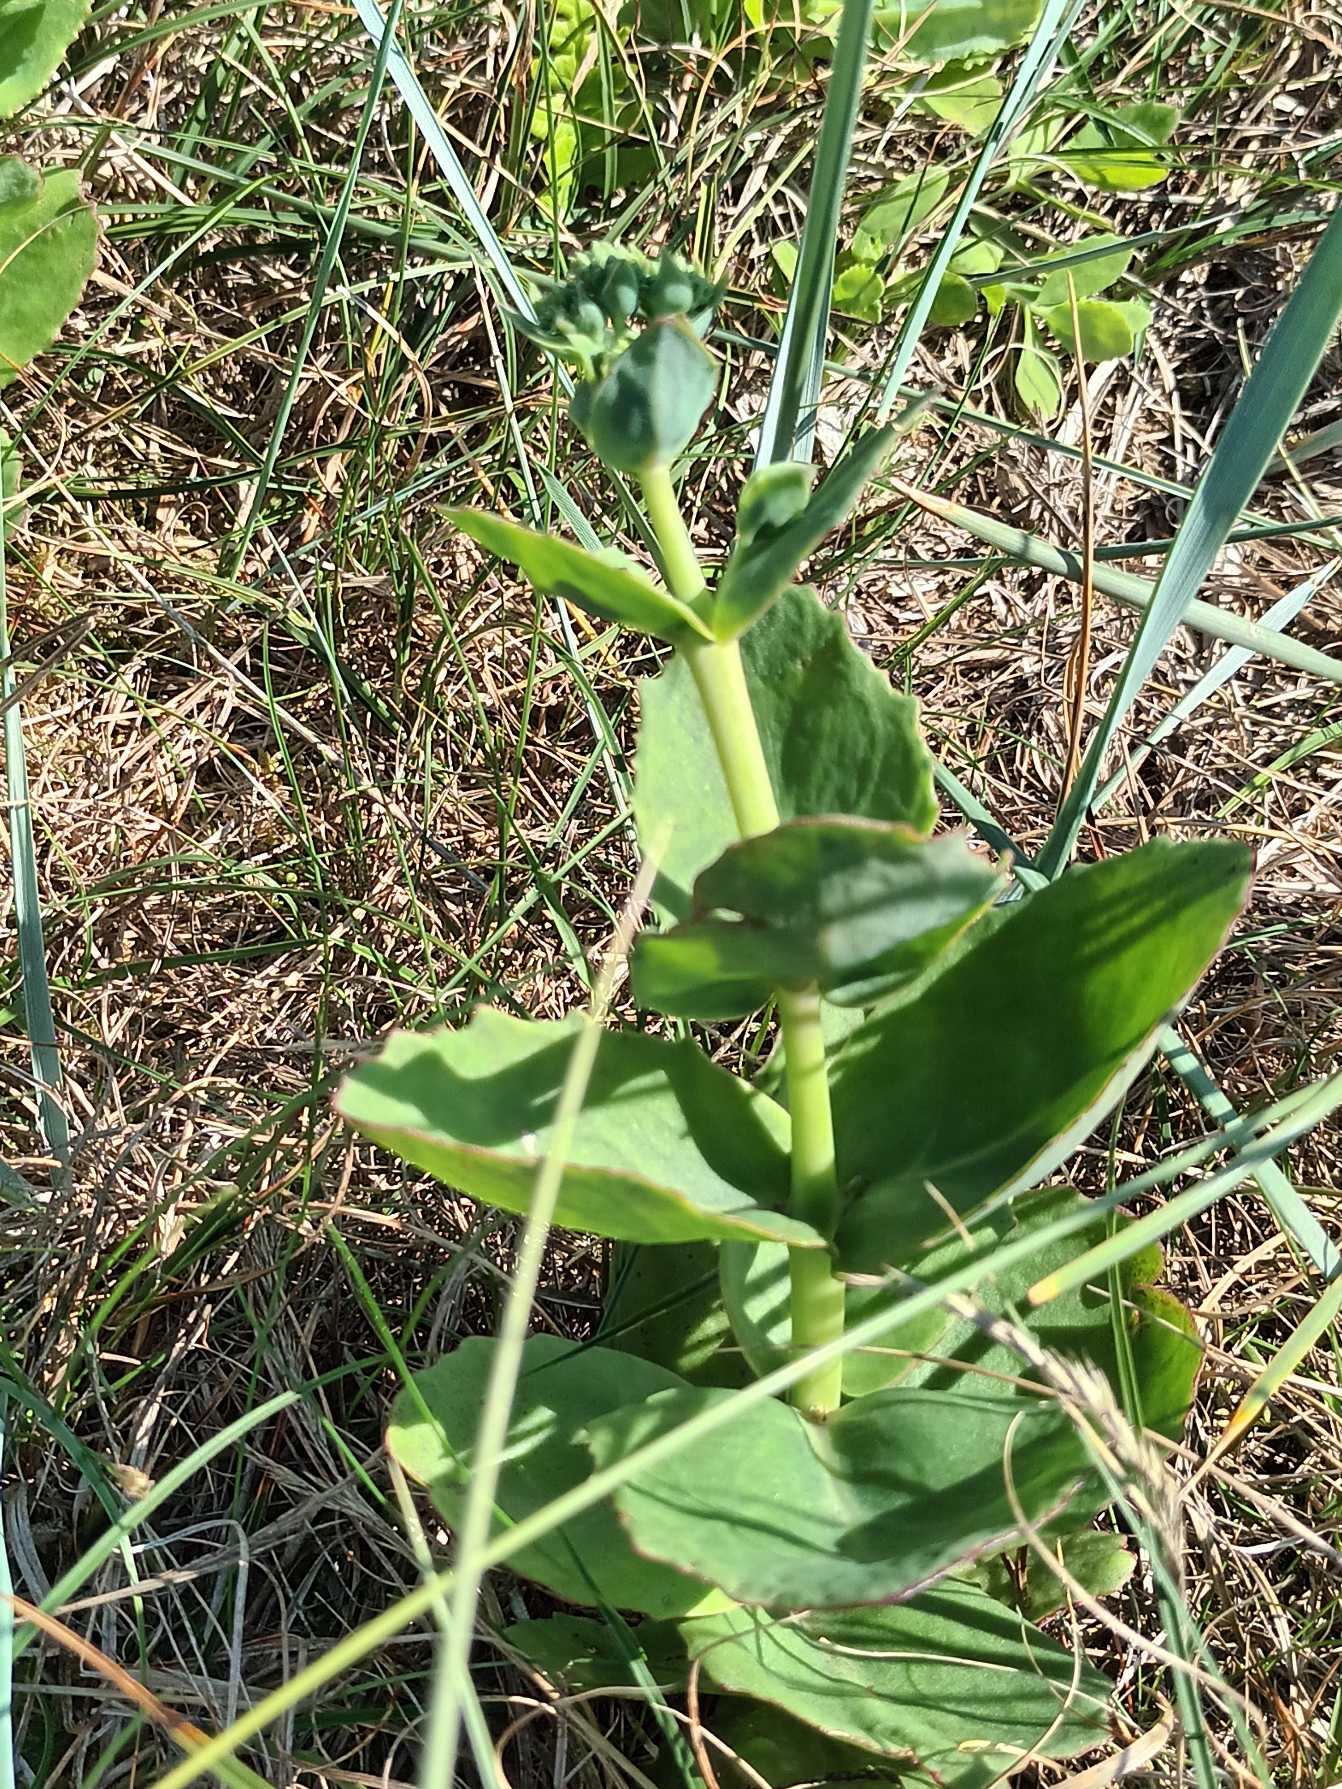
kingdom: Plantae
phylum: Tracheophyta
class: Magnoliopsida
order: Saxifragales
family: Crassulaceae
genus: Hylotelephium
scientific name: Hylotelephium maximum
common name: Almindelig sankthansurt
